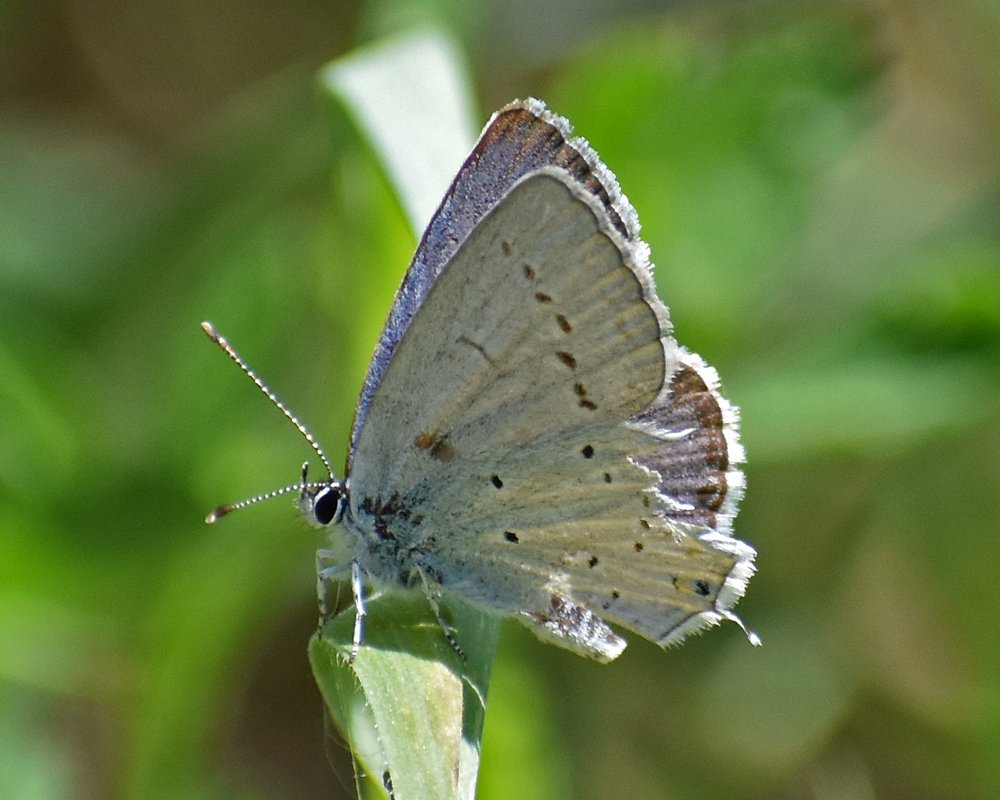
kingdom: Animalia
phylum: Arthropoda
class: Insecta
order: Lepidoptera
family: Lycaenidae
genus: Elkalyce
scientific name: Elkalyce amyntula
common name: Western Tailed-Blue
